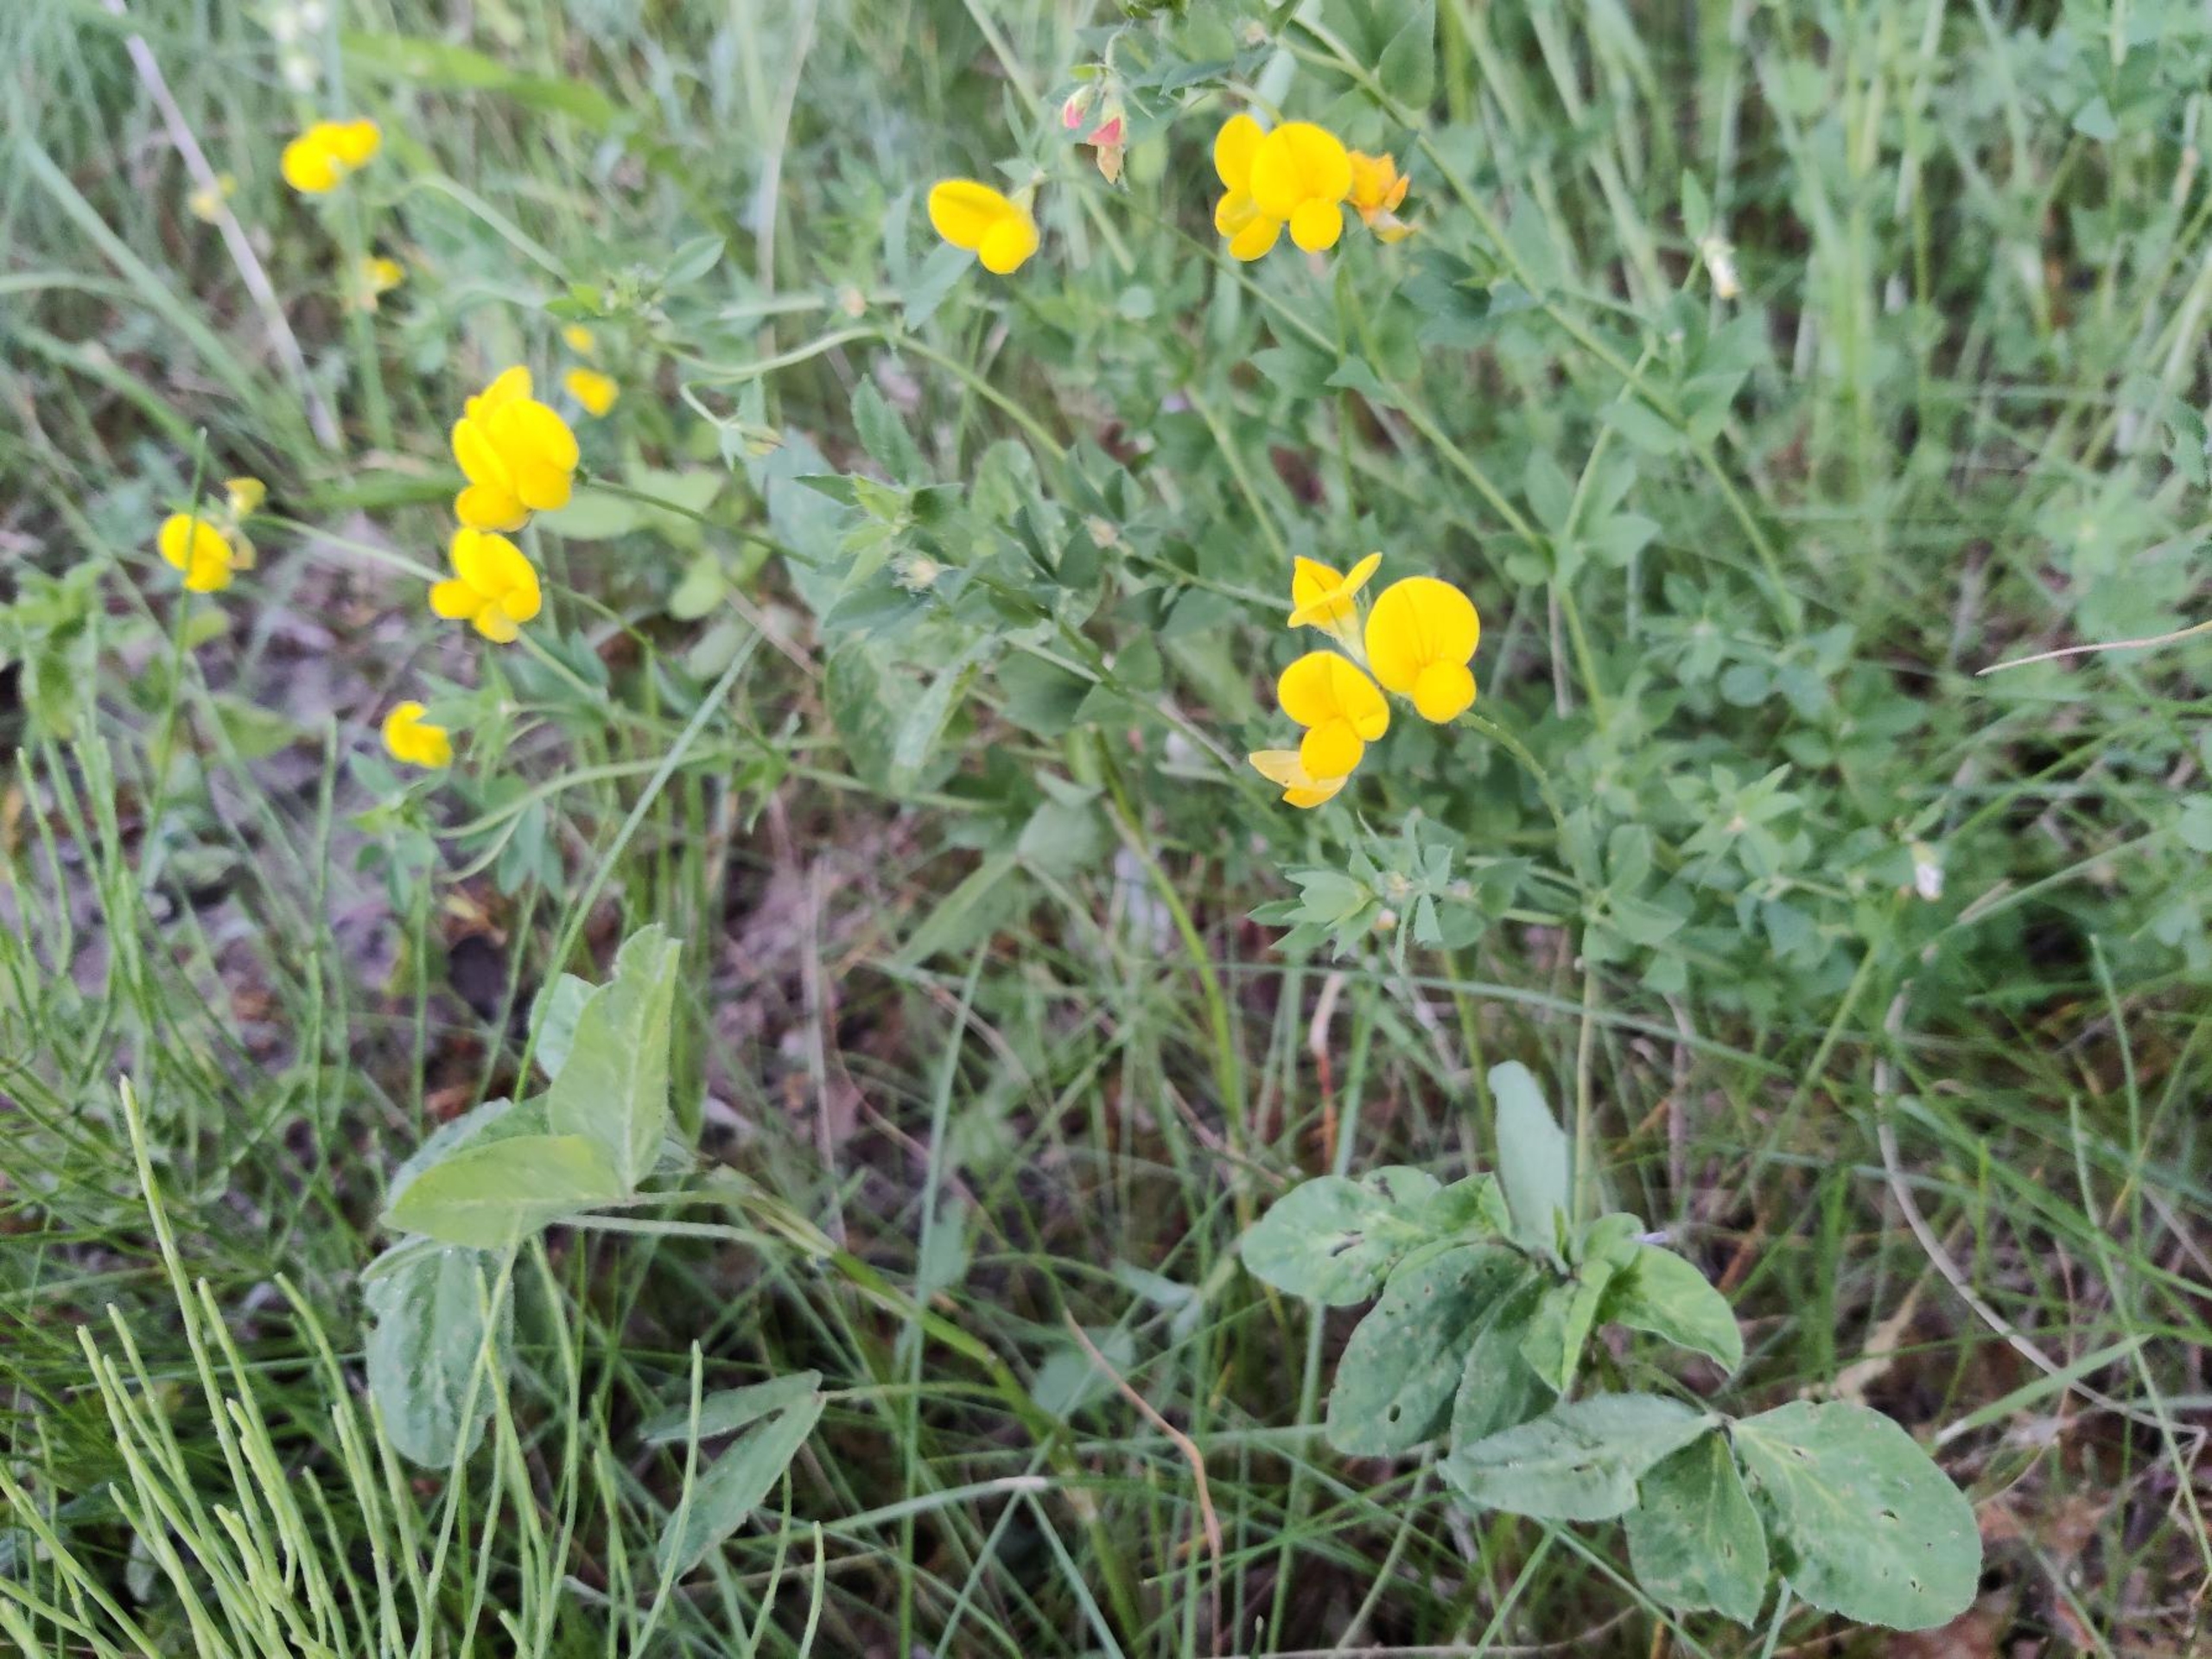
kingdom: Plantae
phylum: Tracheophyta
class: Magnoliopsida
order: Fabales
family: Fabaceae
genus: Lotus
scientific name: Lotus corniculatus
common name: Almindelig kællingetand
